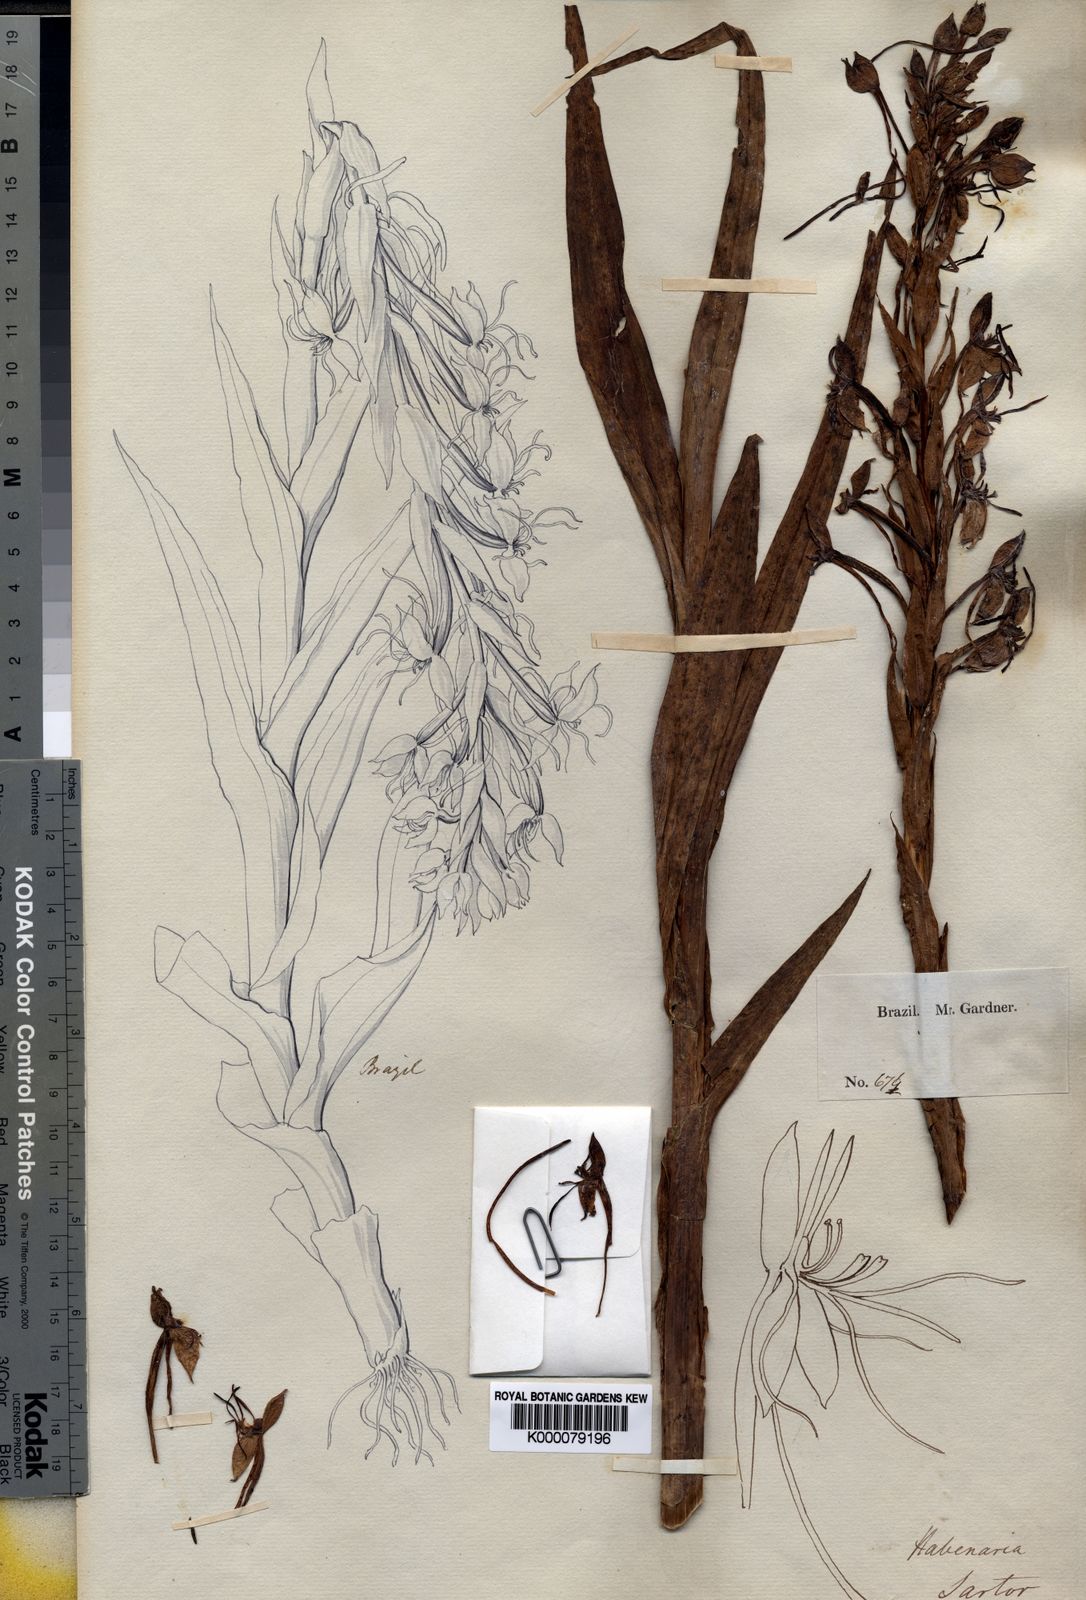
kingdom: Plantae
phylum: Tracheophyta
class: Liliopsida
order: Asparagales
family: Orchidaceae
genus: Habenaria
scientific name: Habenaria sartor
